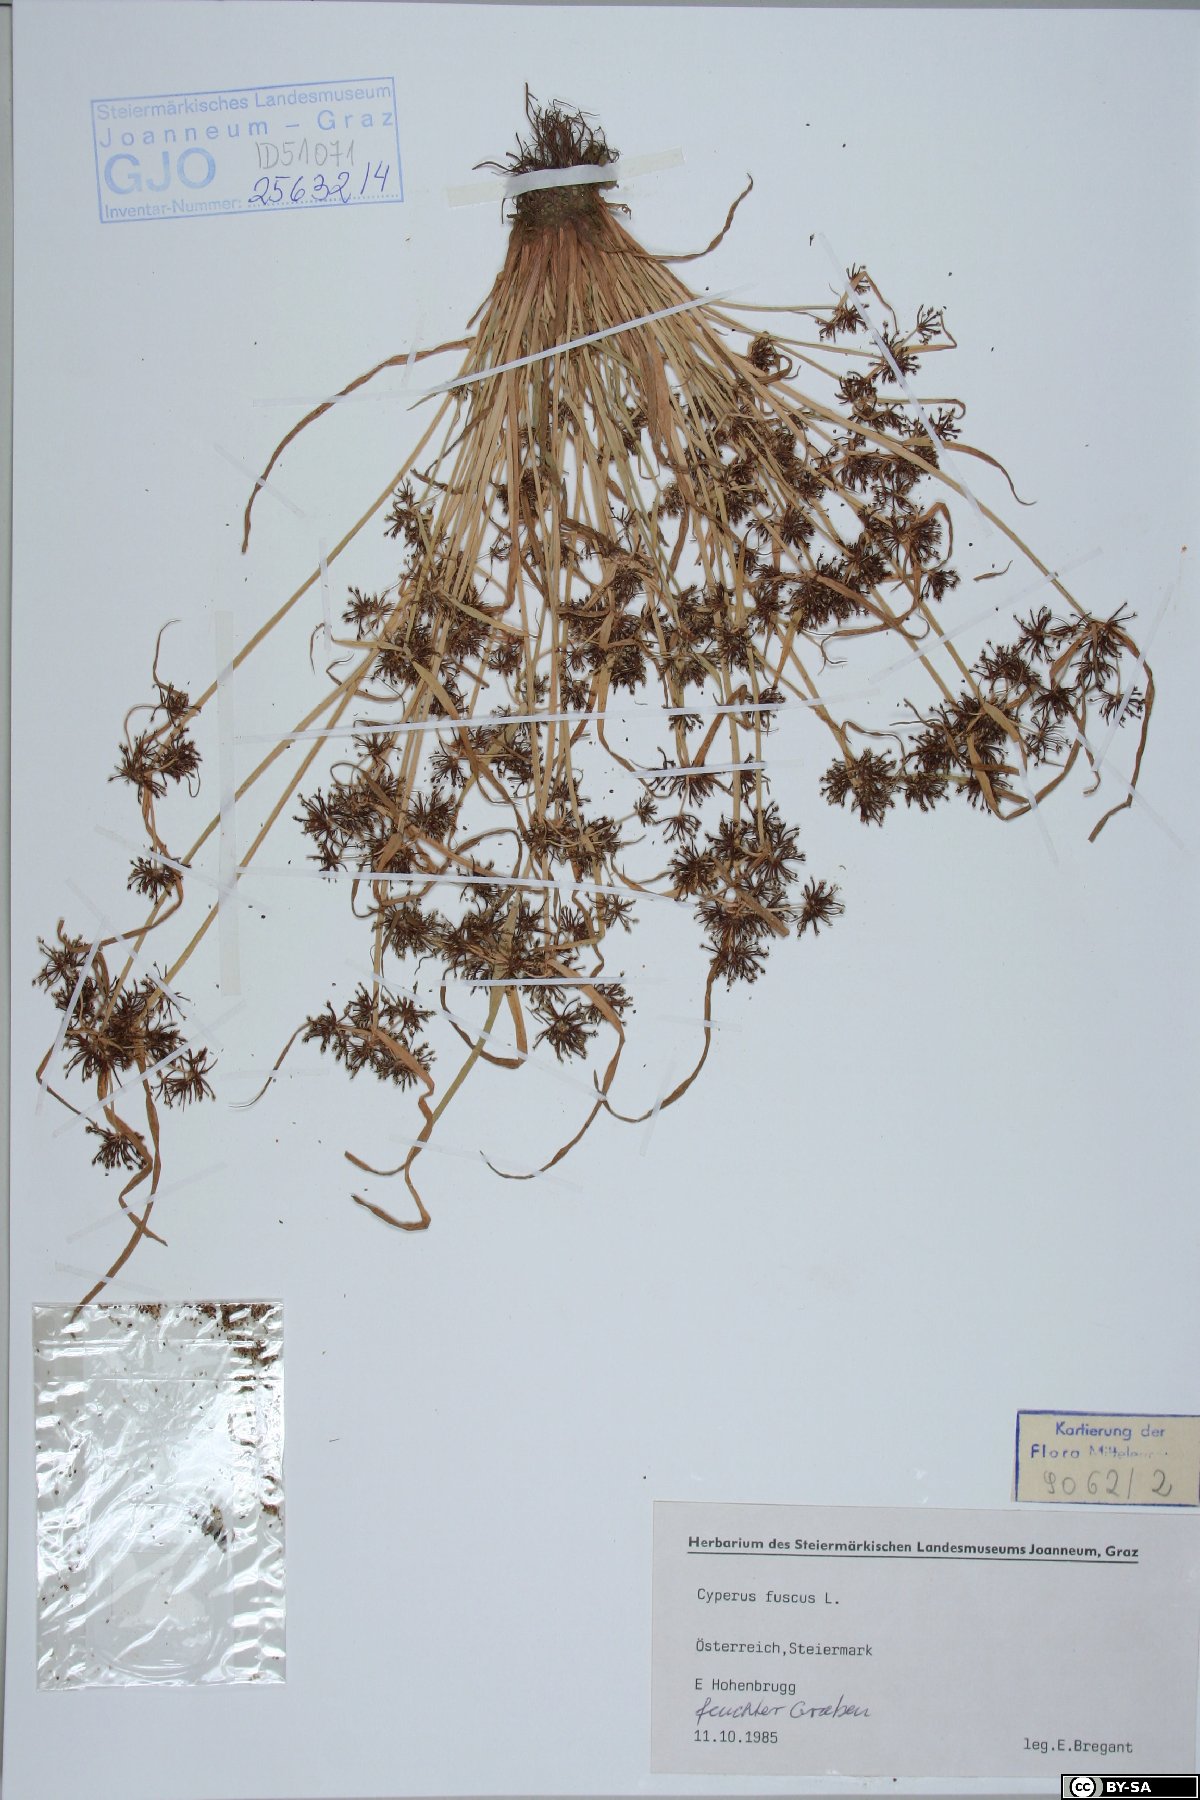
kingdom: Plantae
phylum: Tracheophyta
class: Liliopsida
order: Poales
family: Cyperaceae
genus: Cyperus
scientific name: Cyperus fuscus
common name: Brown galingale
